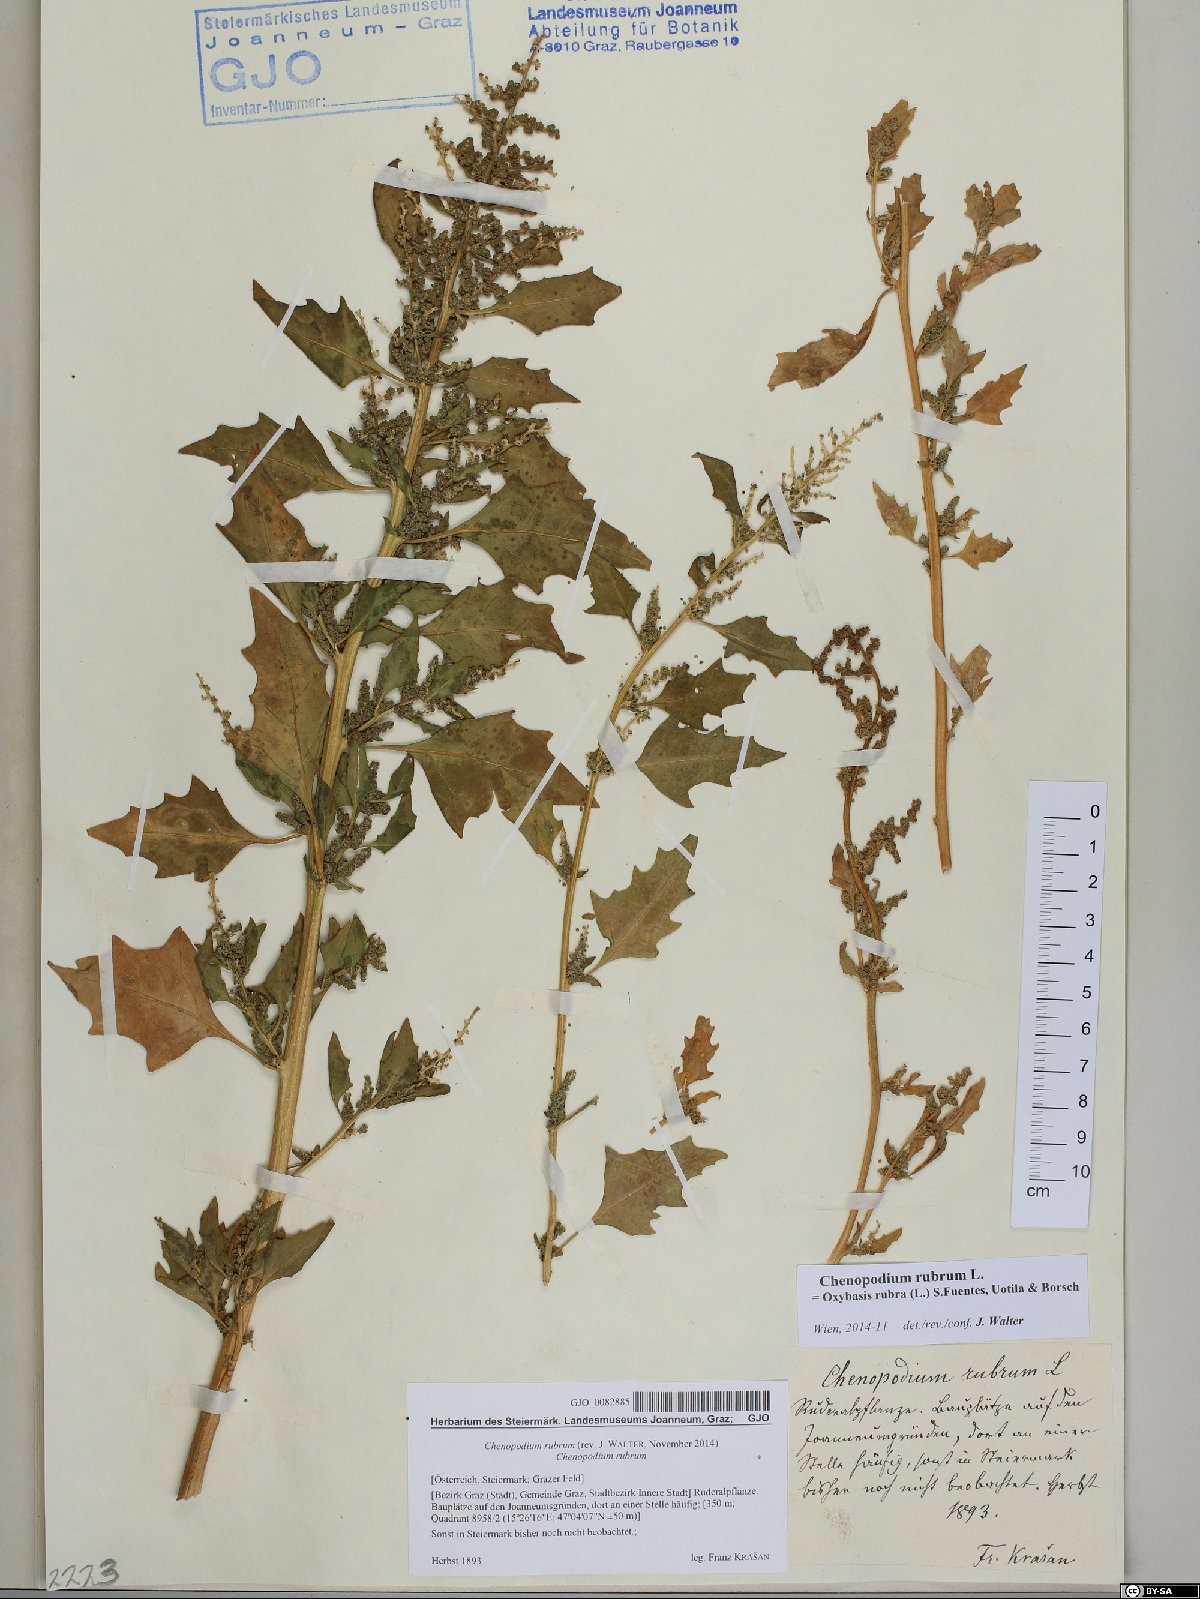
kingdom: Plantae
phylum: Tracheophyta
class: Magnoliopsida
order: Caryophyllales
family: Amaranthaceae
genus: Oxybasis
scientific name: Oxybasis rubra
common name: Red goosefoot
